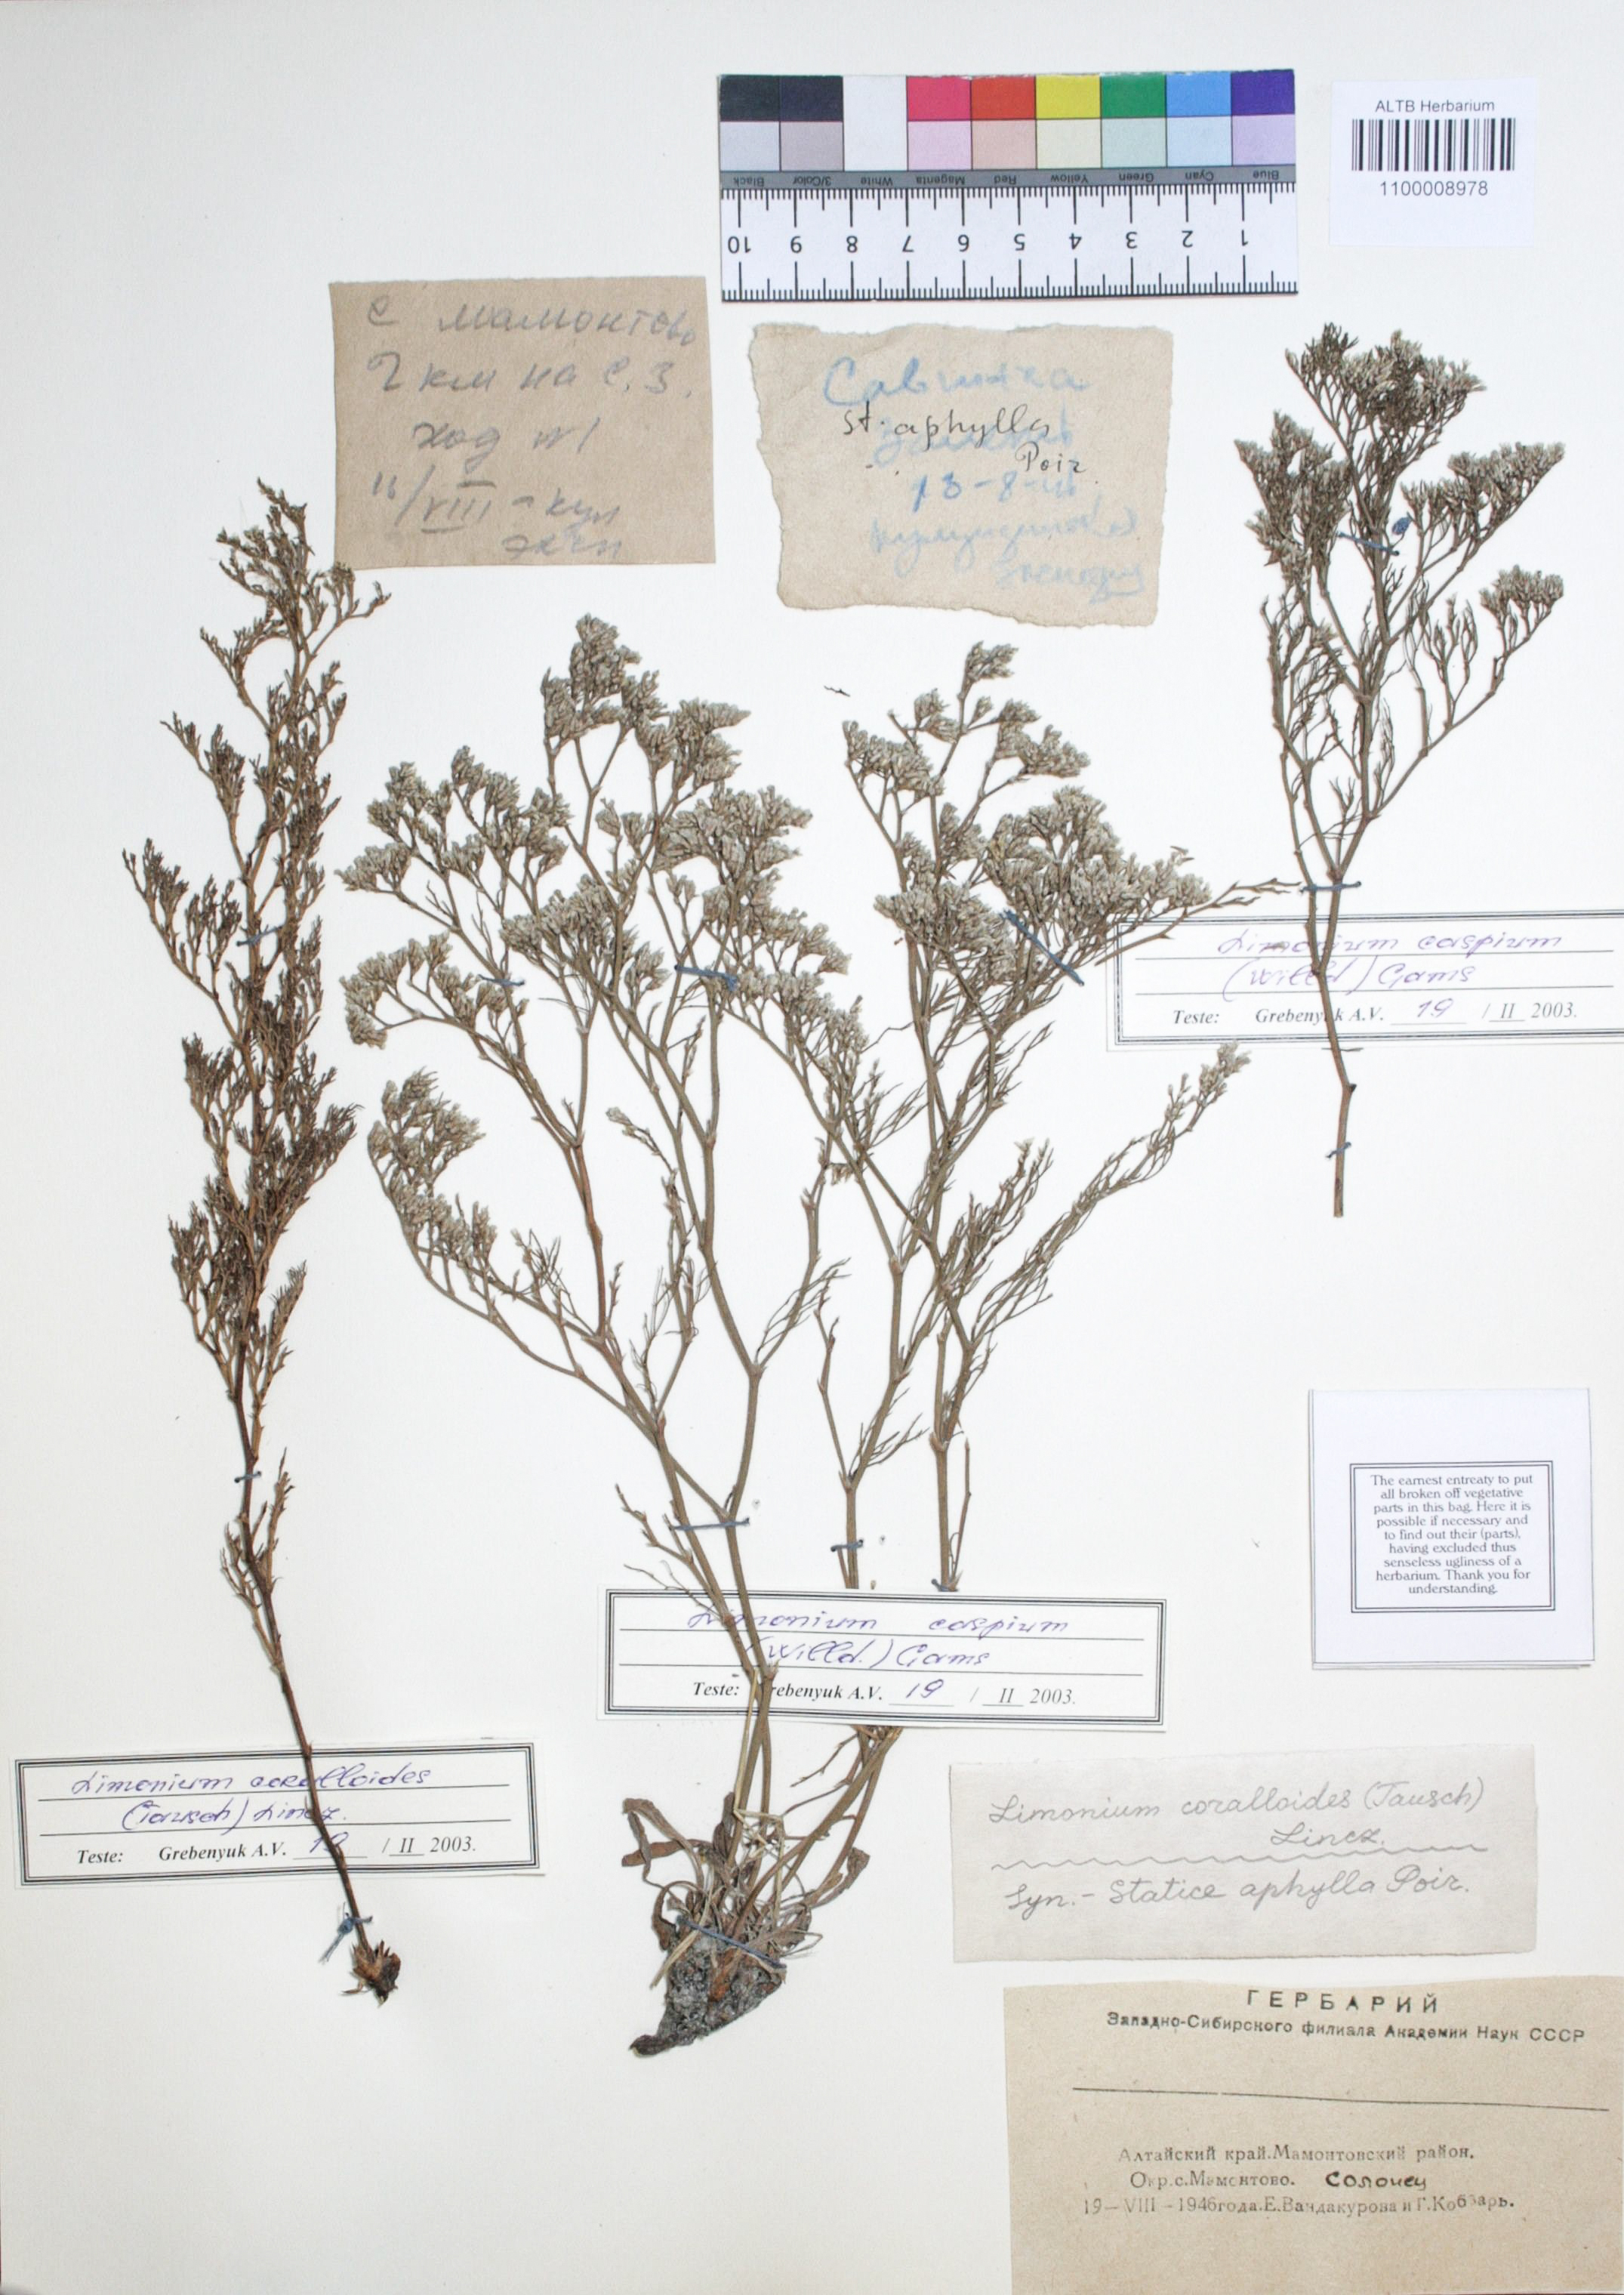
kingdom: Plantae
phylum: Tracheophyta
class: Magnoliopsida
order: Caryophyllales
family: Plumbaginaceae
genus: Limonium
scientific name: Limonium bellidifolium
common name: Matted sea-lavender
